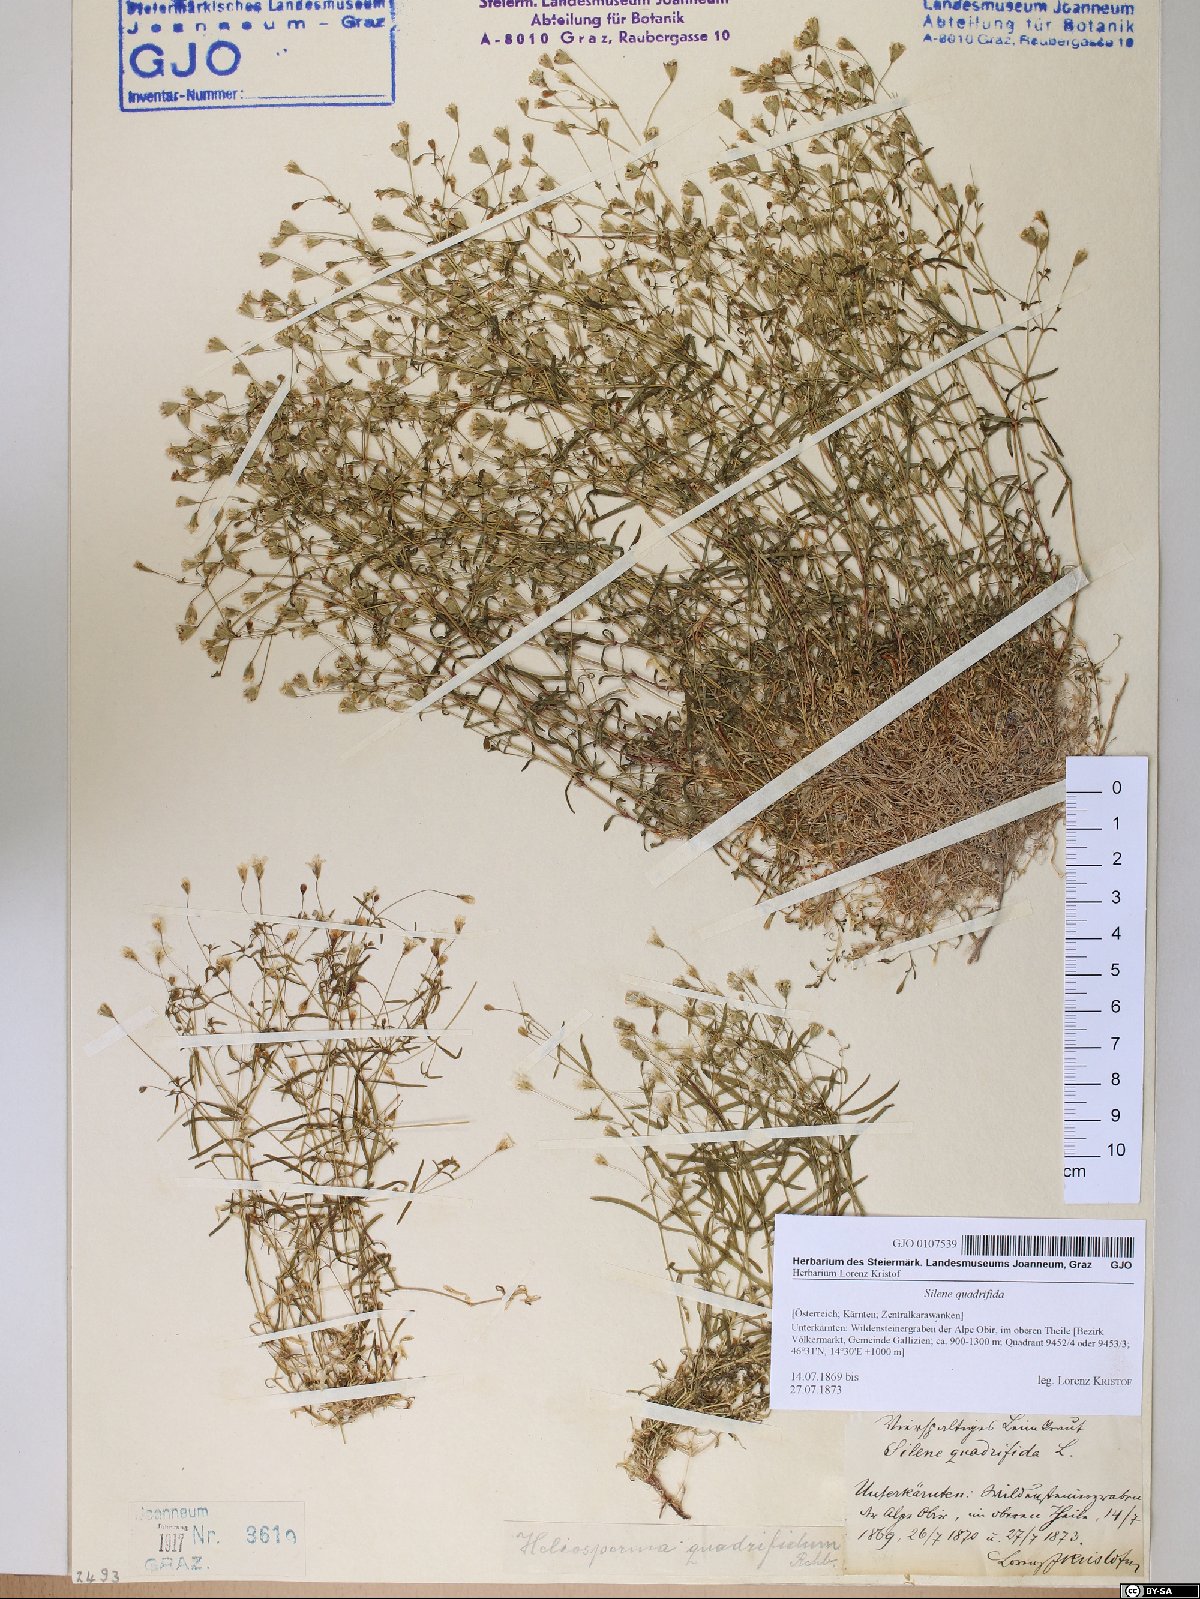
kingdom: Plantae
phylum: Tracheophyta
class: Magnoliopsida
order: Caryophyllales
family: Caryophyllaceae
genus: Heliosperma
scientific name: Heliosperma alpestre
